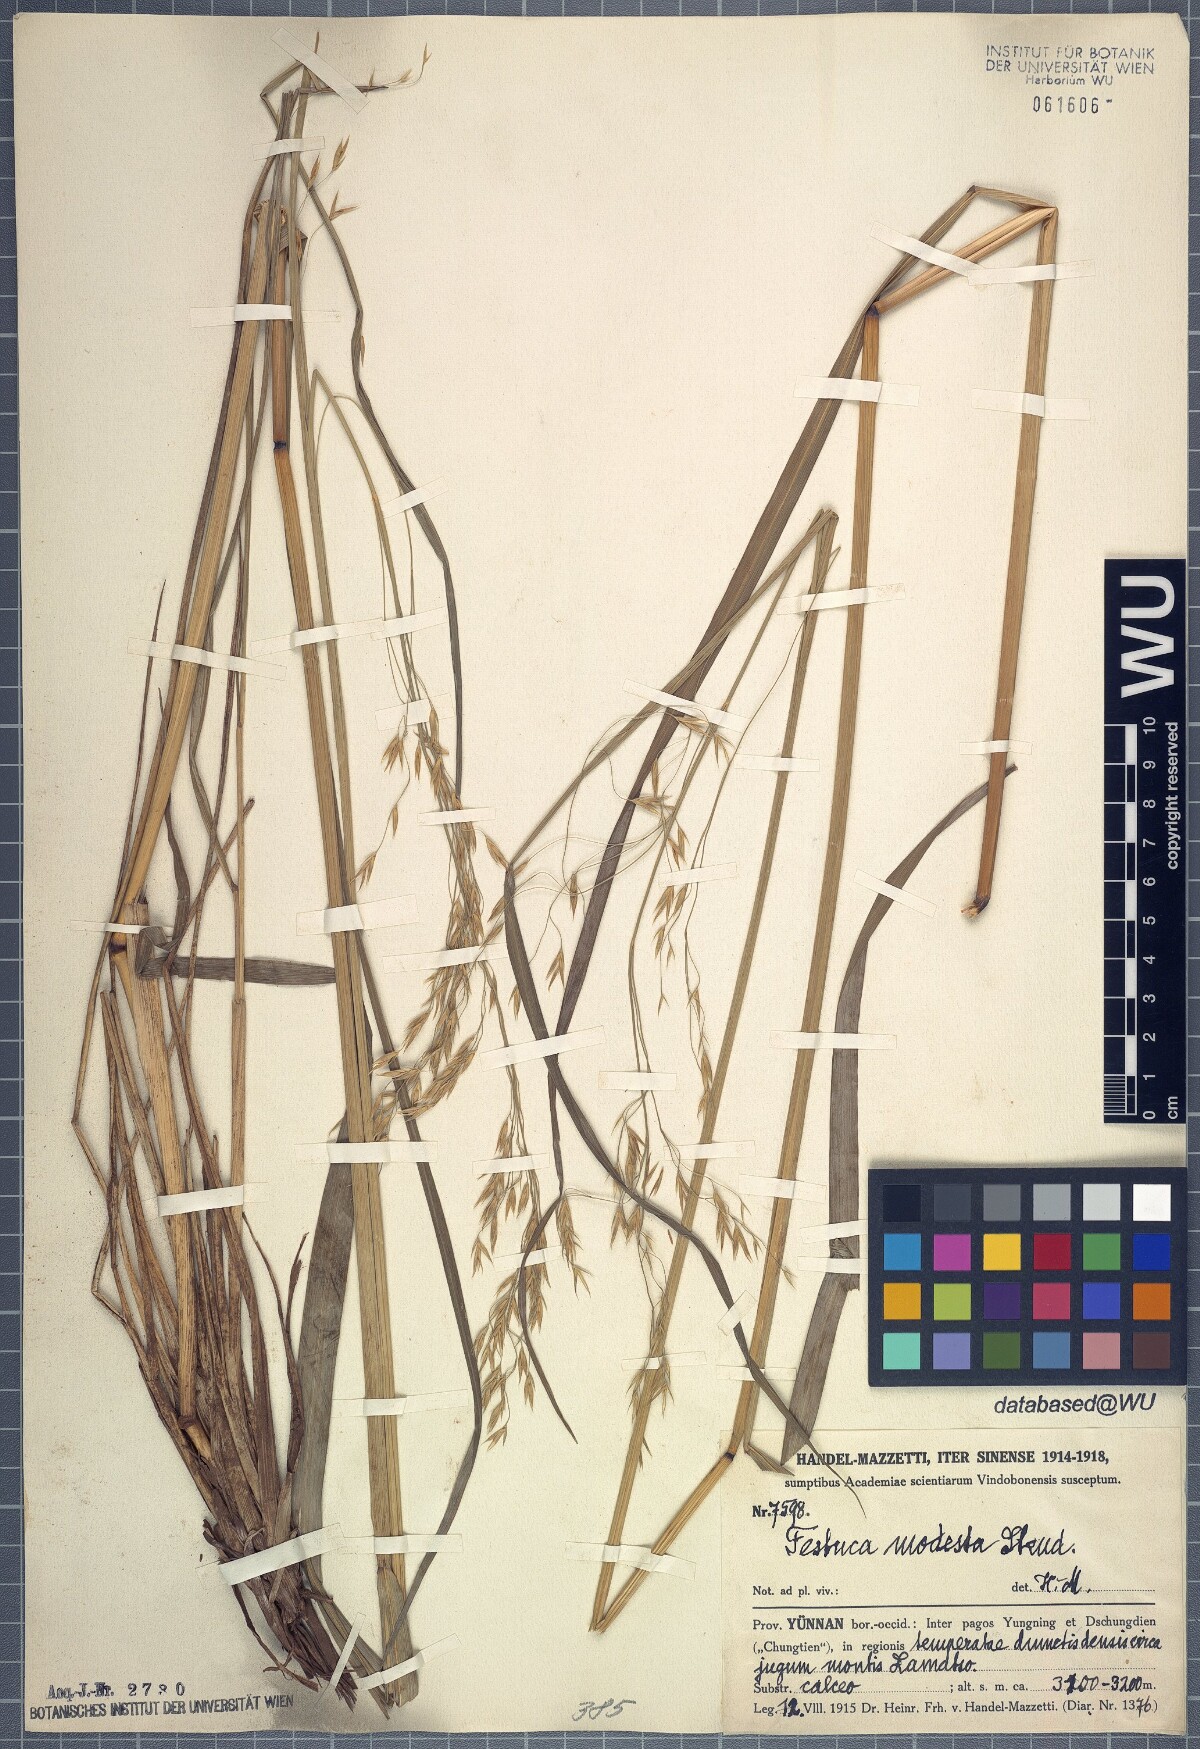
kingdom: Plantae
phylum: Tracheophyta
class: Liliopsida
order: Poales
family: Poaceae
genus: Festuca
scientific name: Festuca modesta
